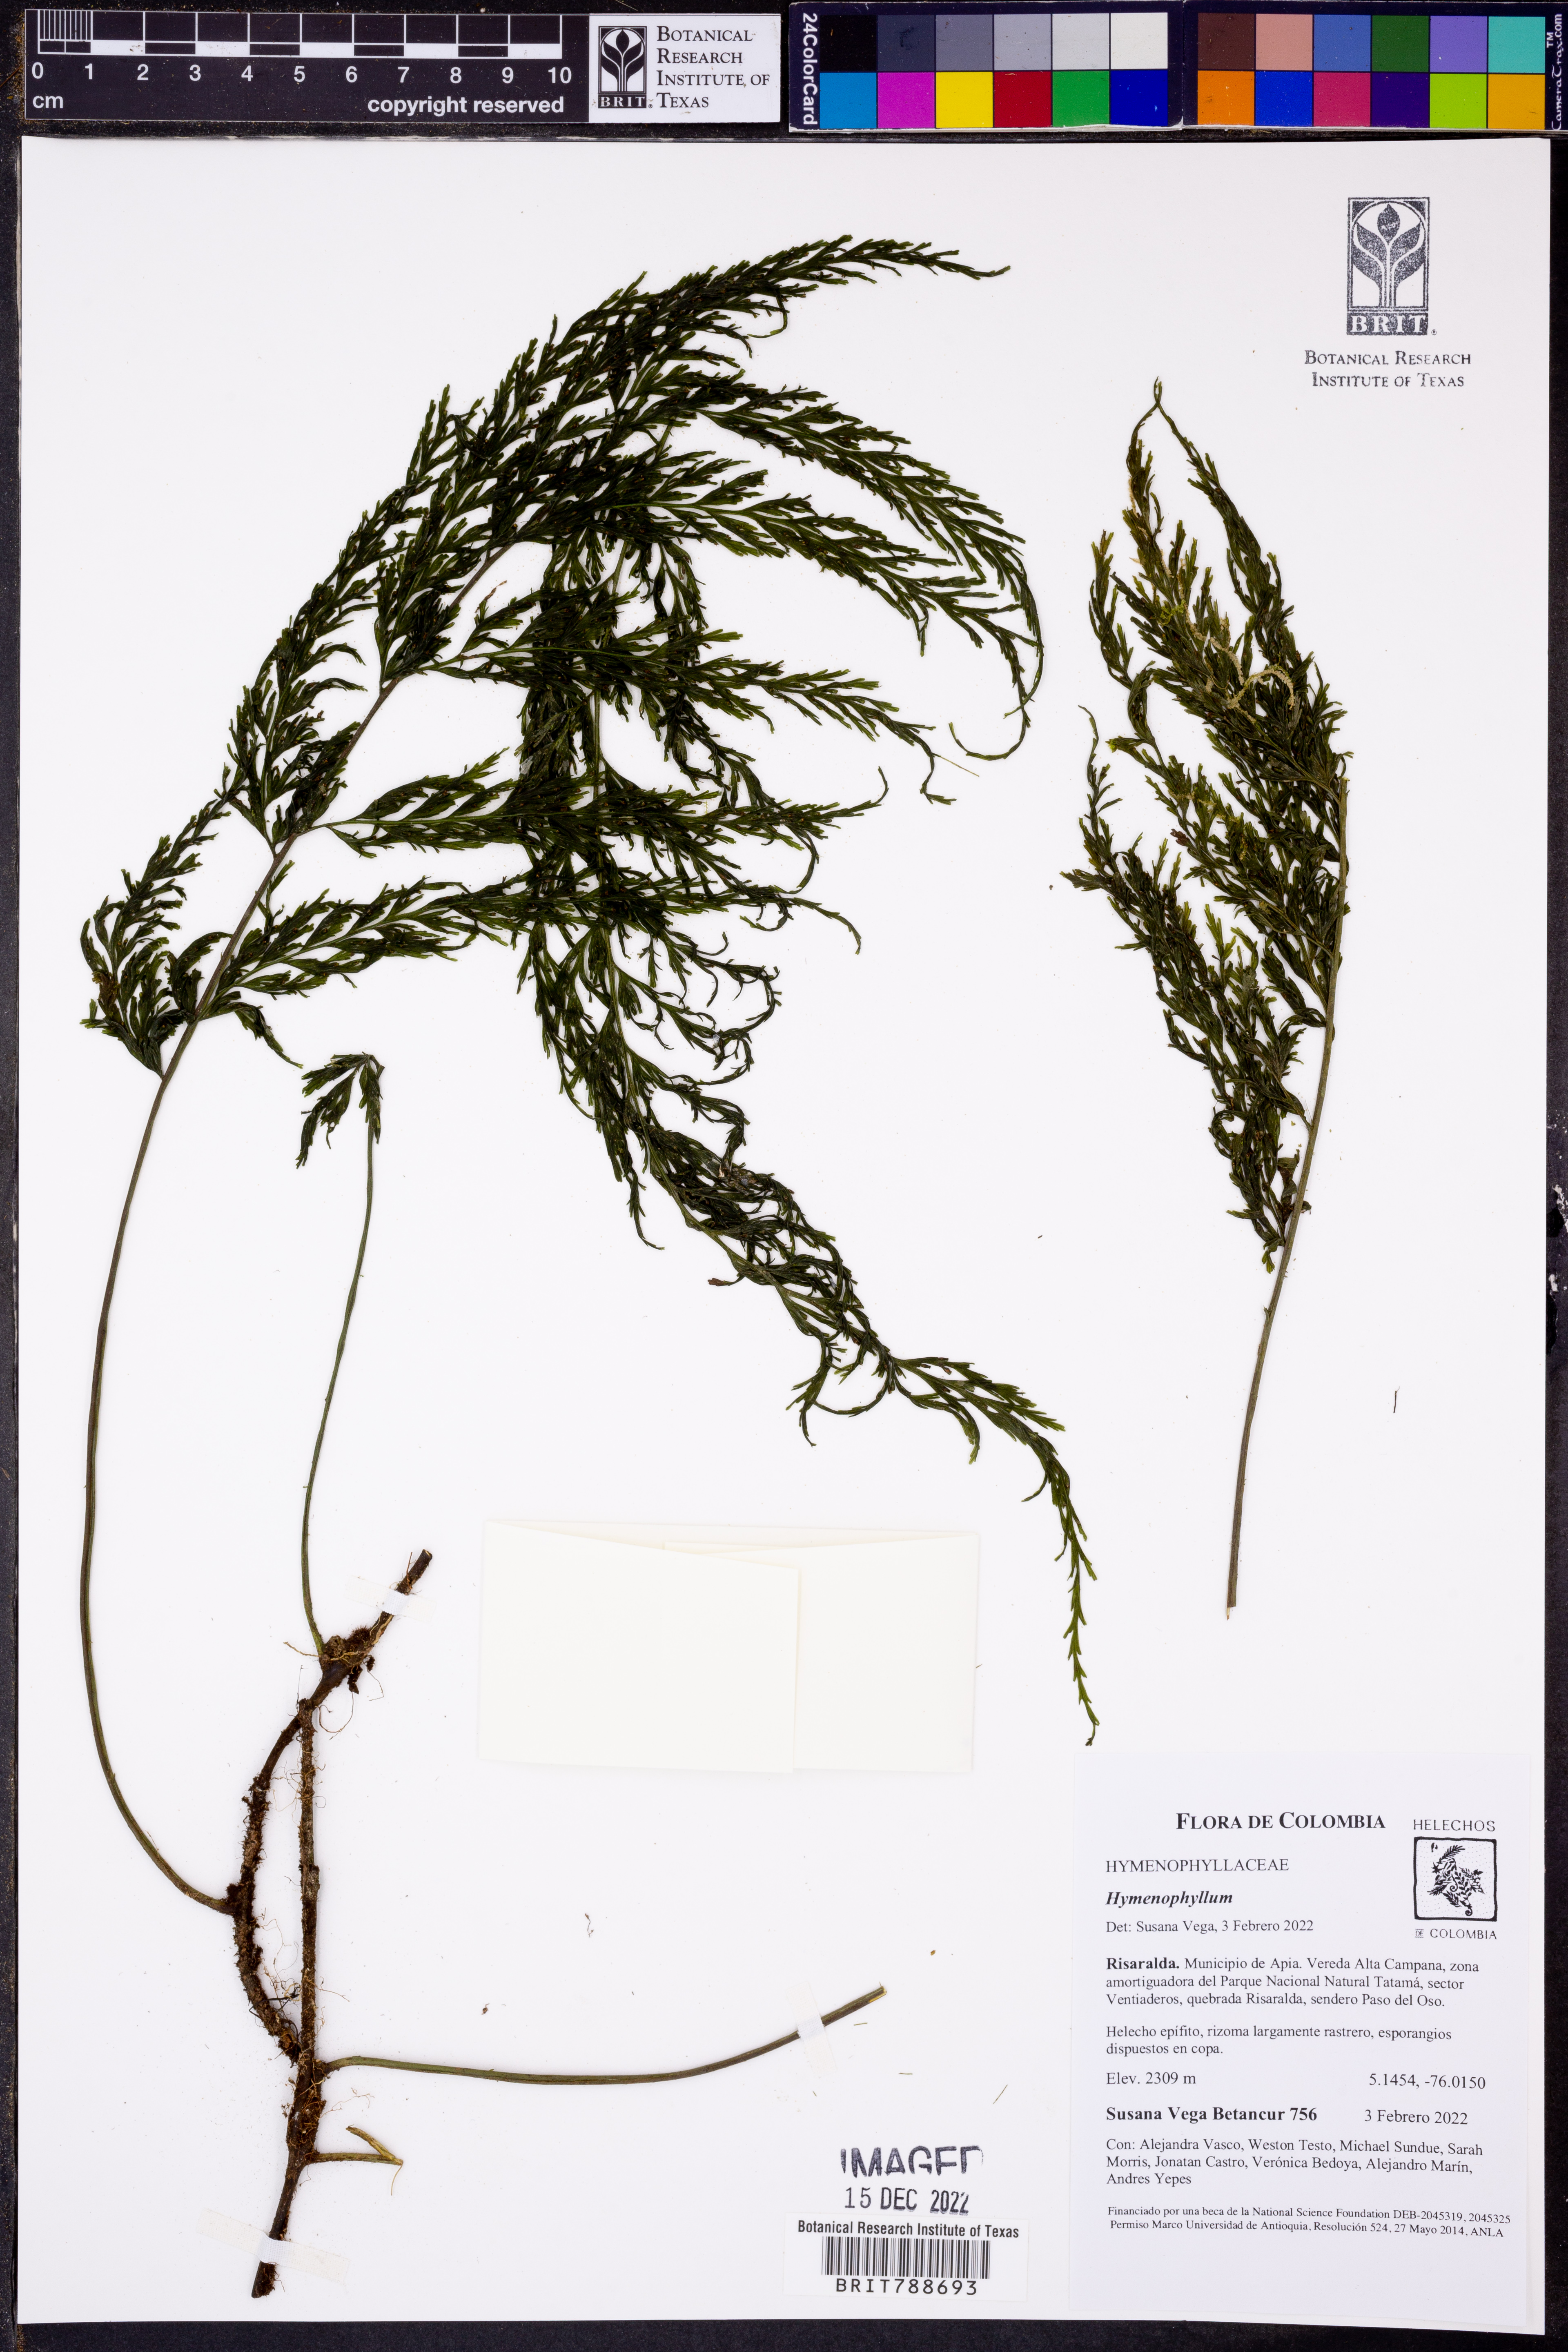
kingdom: Plantae
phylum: Tracheophyta
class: Polypodiopsida
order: Hymenophyllales
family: Hymenophyllaceae
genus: Vandenboschia
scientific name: Vandenboschia radicans
